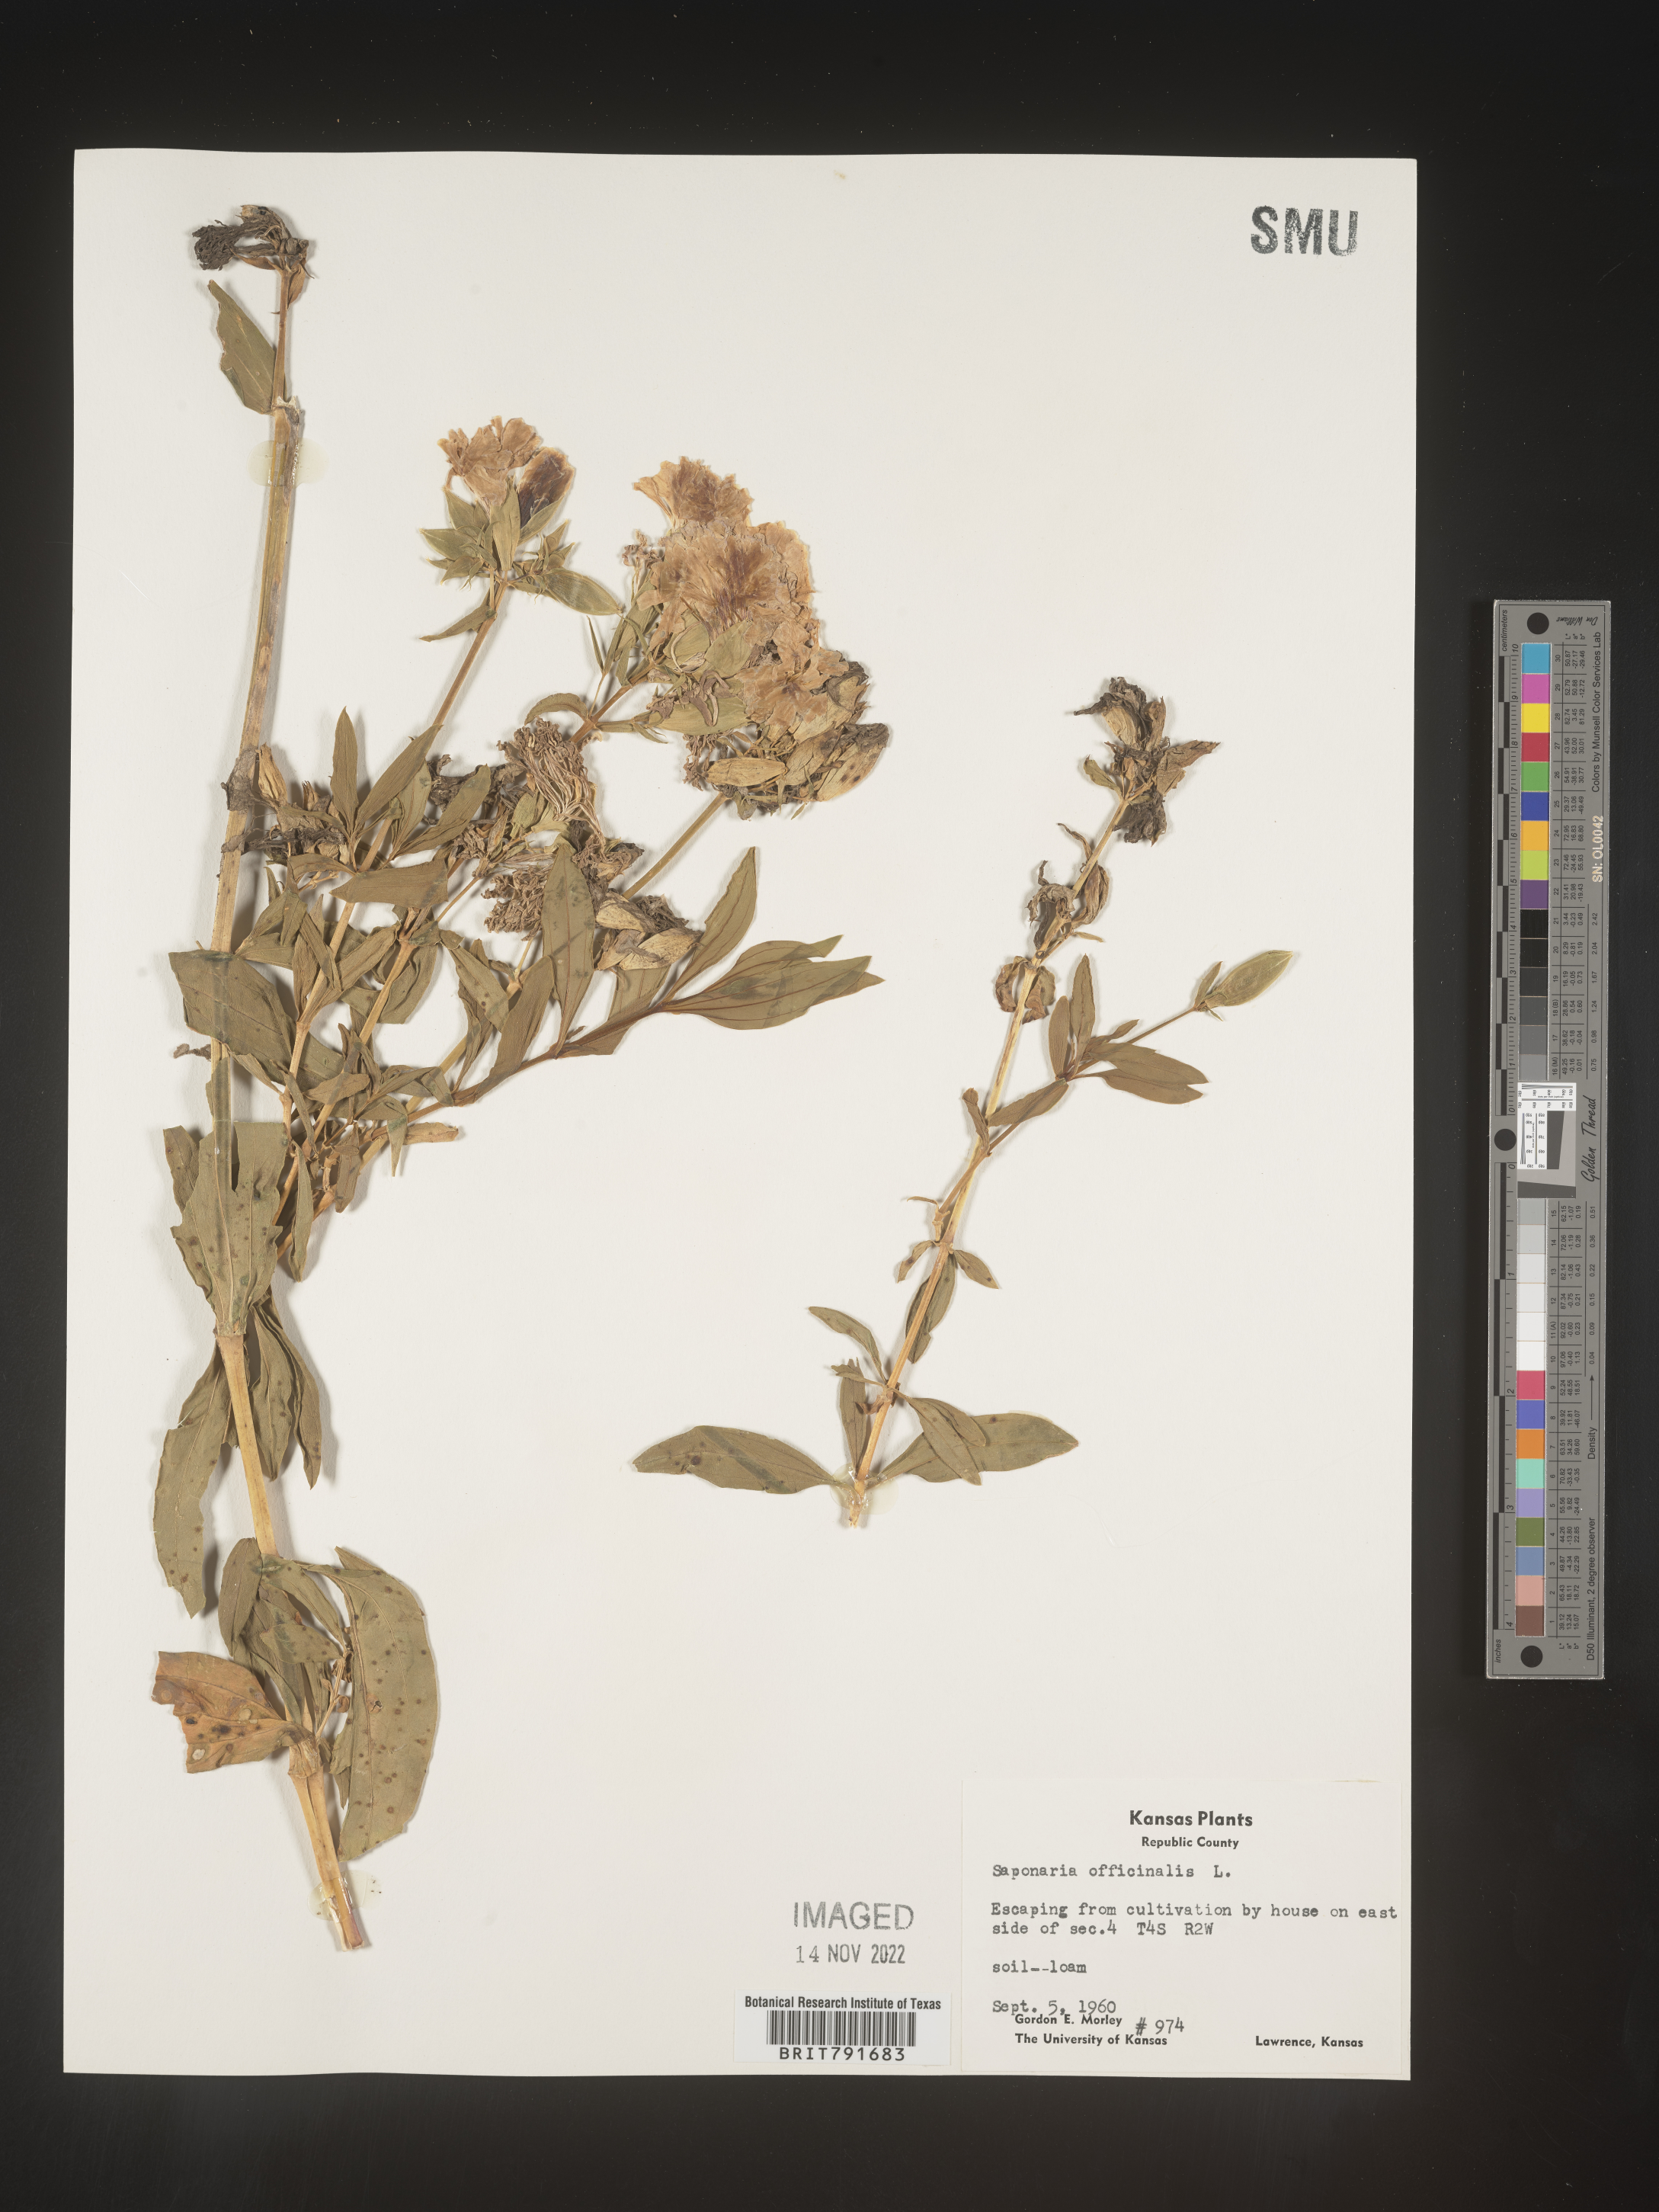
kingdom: Plantae
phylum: Tracheophyta
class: Magnoliopsida
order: Caryophyllales
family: Caryophyllaceae
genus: Saponaria
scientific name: Saponaria officinalis
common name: Soapwort
